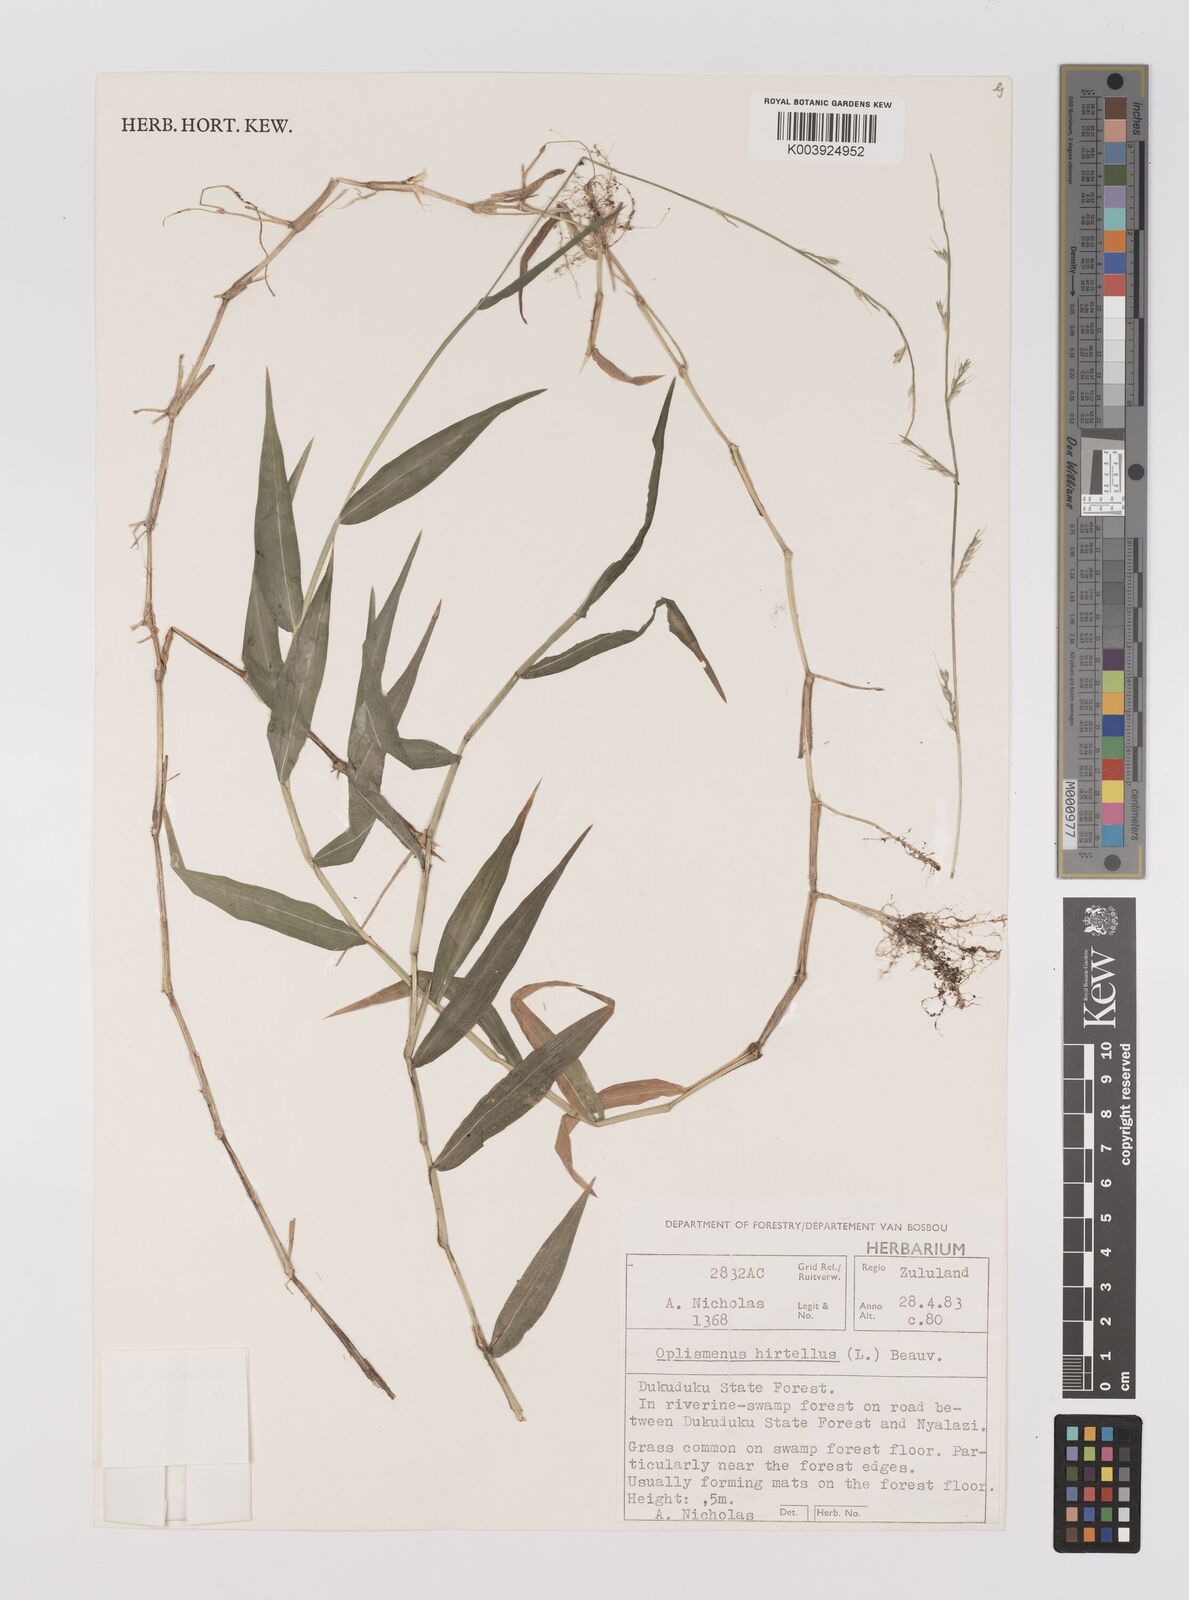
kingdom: Plantae
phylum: Tracheophyta
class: Liliopsida
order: Poales
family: Poaceae
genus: Oplismenus
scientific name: Oplismenus hirtellus
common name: Basketgrass
